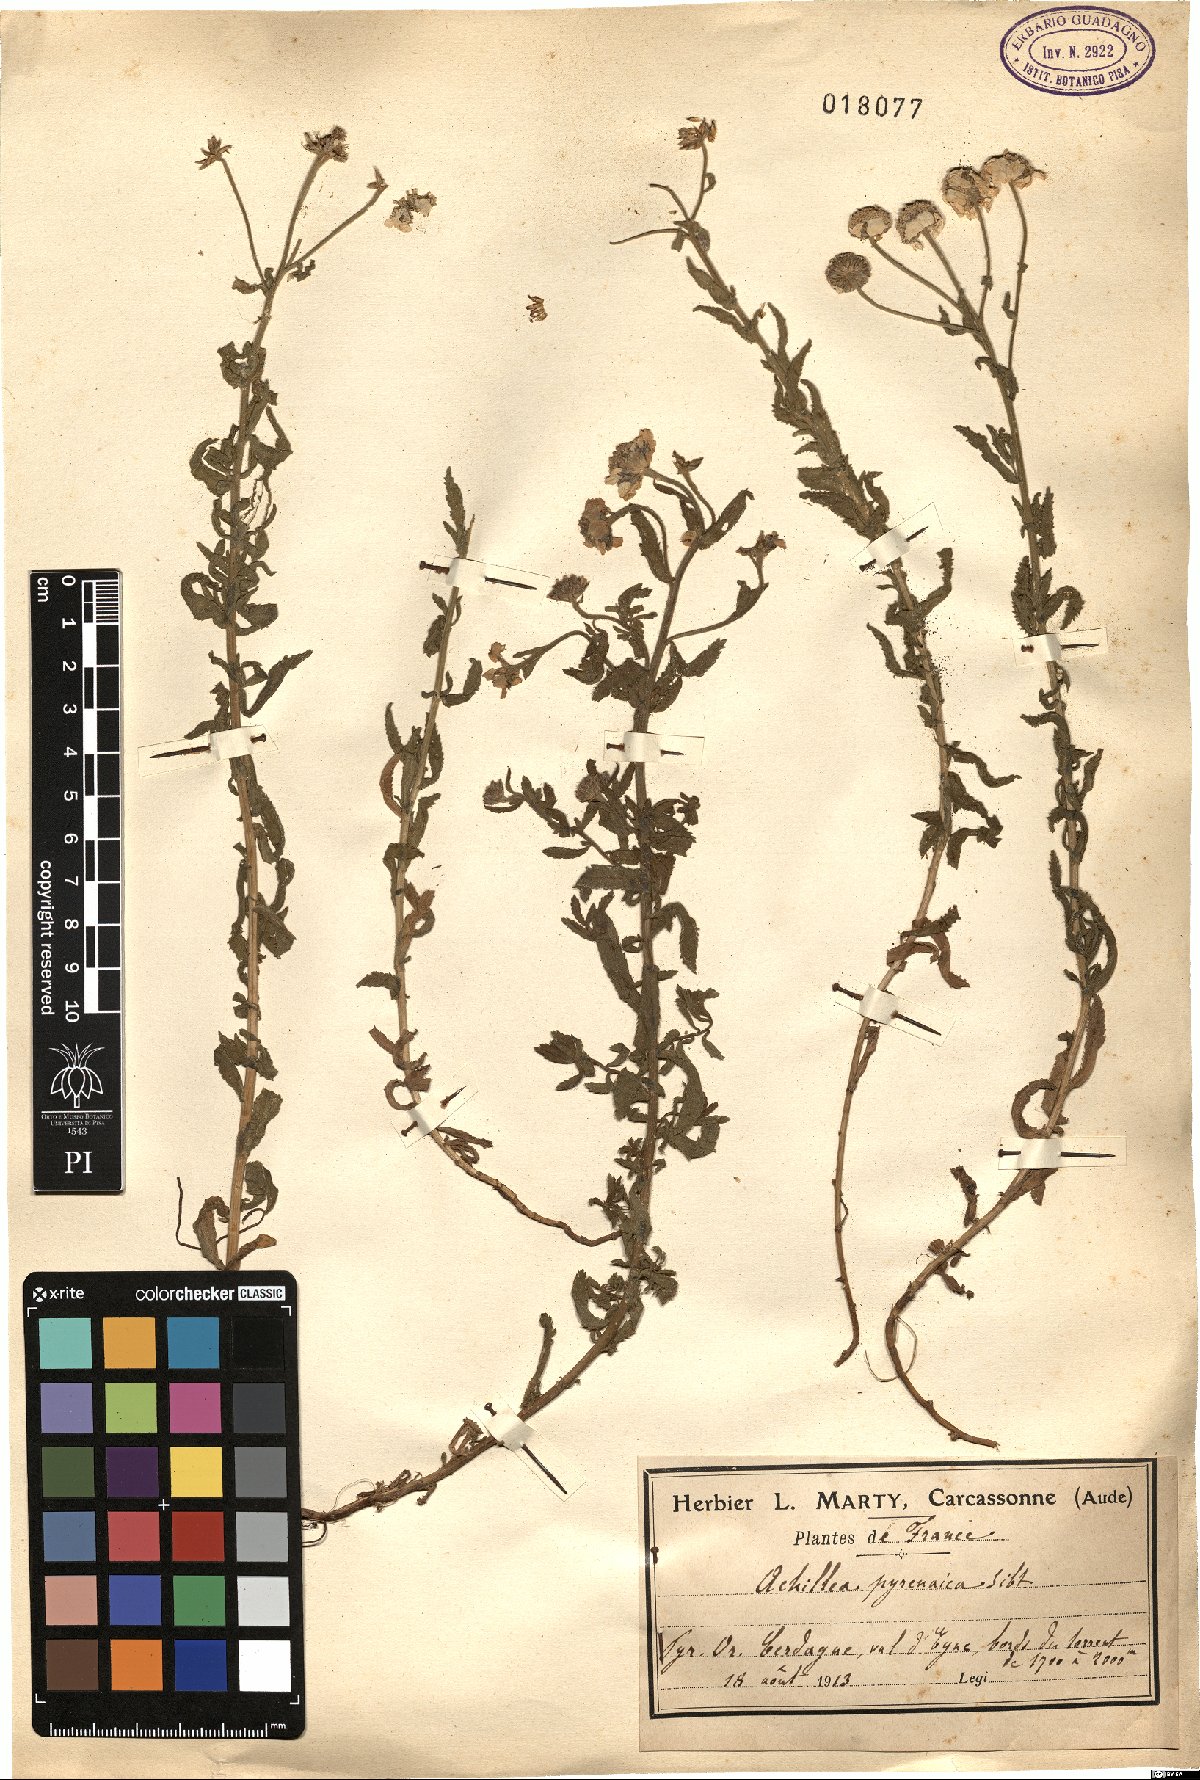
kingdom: Plantae
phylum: Tracheophyta
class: Magnoliopsida
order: Asterales
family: Asteraceae
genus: Achillea
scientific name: Achillea pyrenaica
